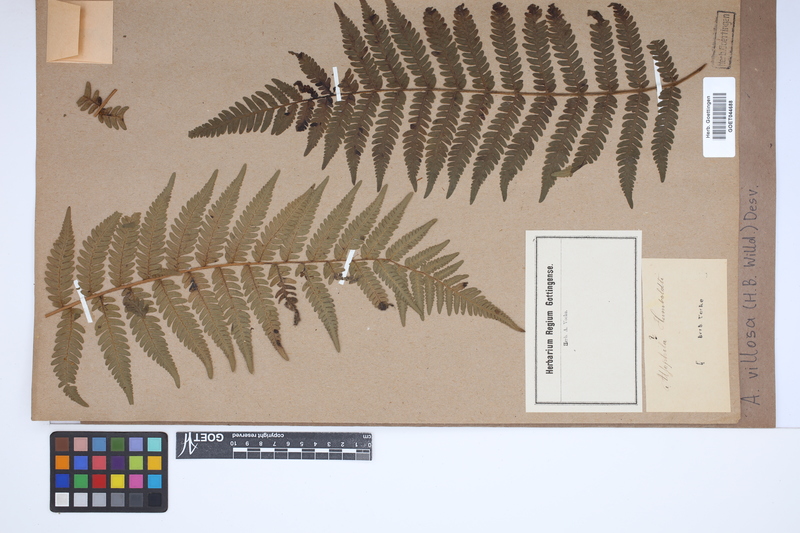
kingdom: Plantae
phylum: Tracheophyta
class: Polypodiopsida
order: Cyatheales
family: Cyatheaceae
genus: Cyathea
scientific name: Cyathea villosa
